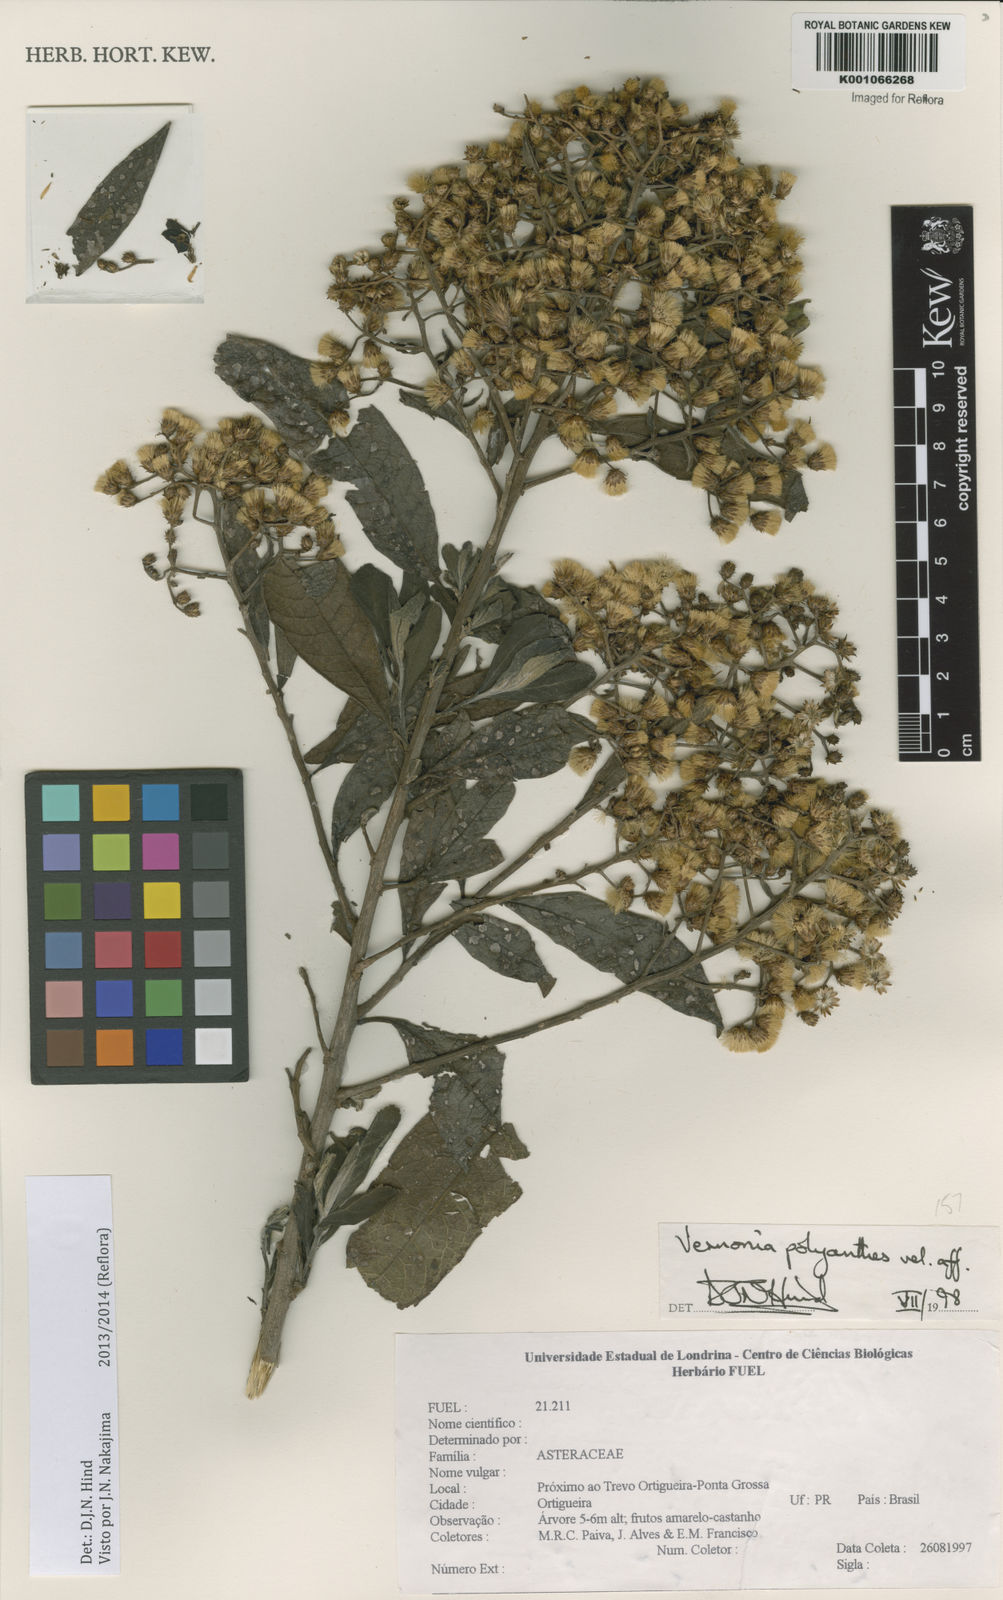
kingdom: Plantae
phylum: Tracheophyta
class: Magnoliopsida
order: Asterales
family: Asteraceae
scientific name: Asteraceae
